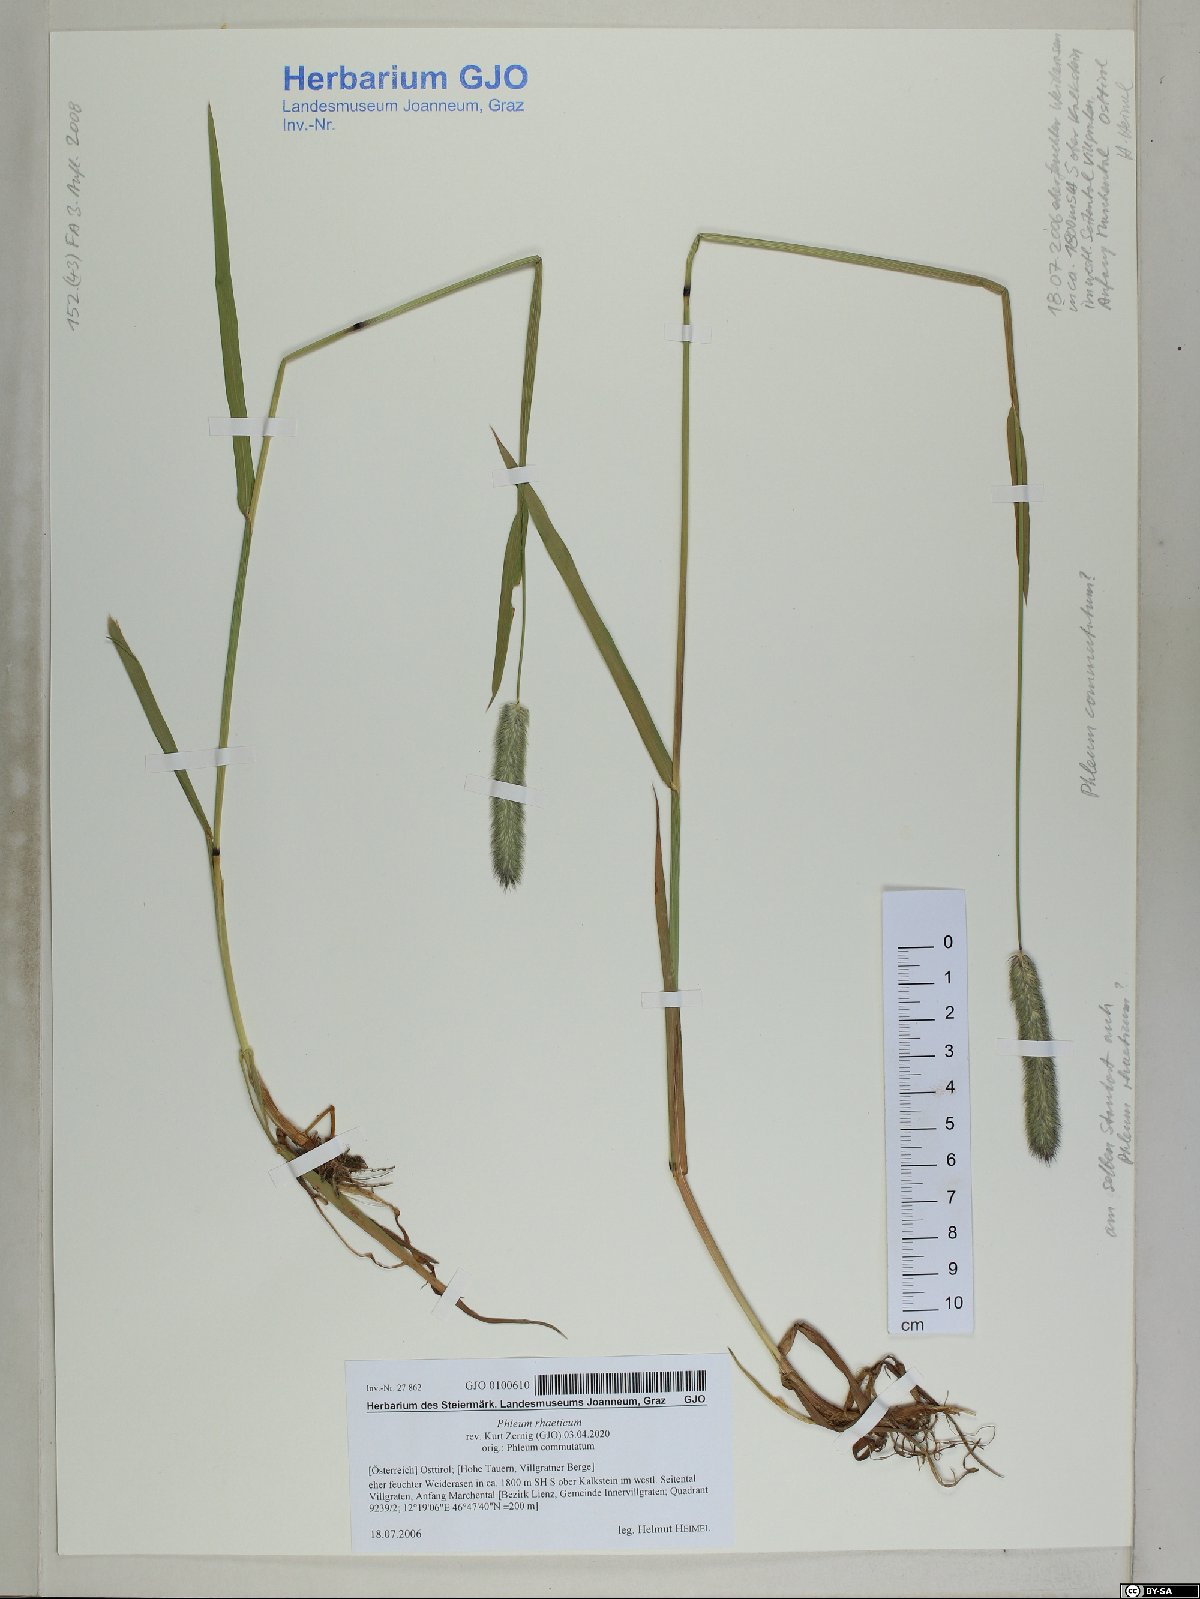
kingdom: Plantae
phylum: Tracheophyta
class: Liliopsida
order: Poales
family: Poaceae
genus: Phleum
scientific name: Phleum alpinum
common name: Alpine cat's-tail
